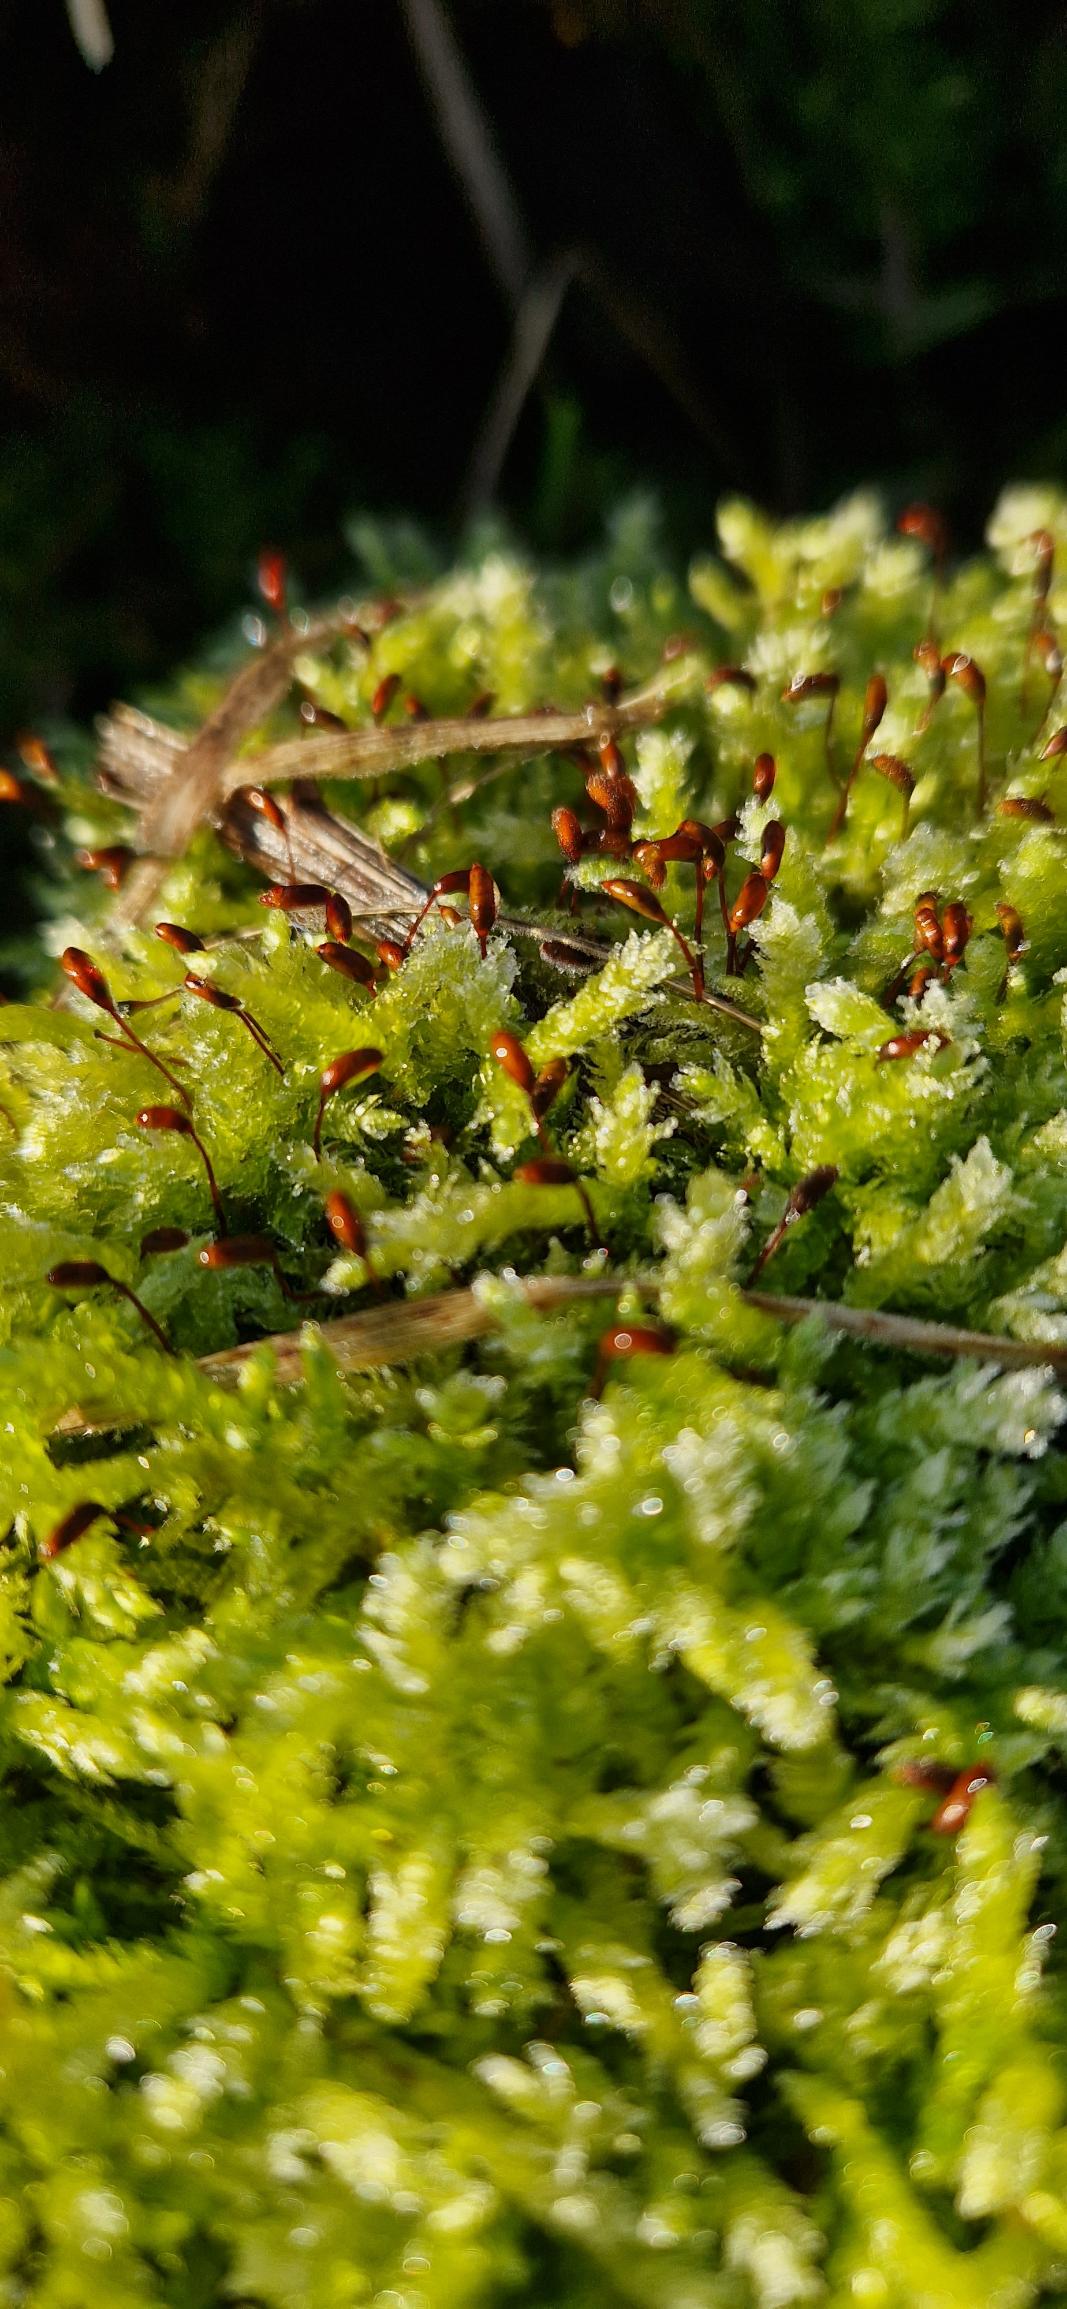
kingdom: Plantae
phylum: Bryophyta
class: Bryopsida
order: Hypnales
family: Brachytheciaceae
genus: Brachythecium
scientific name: Brachythecium rutabulum
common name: Almindelig kortkapsel
